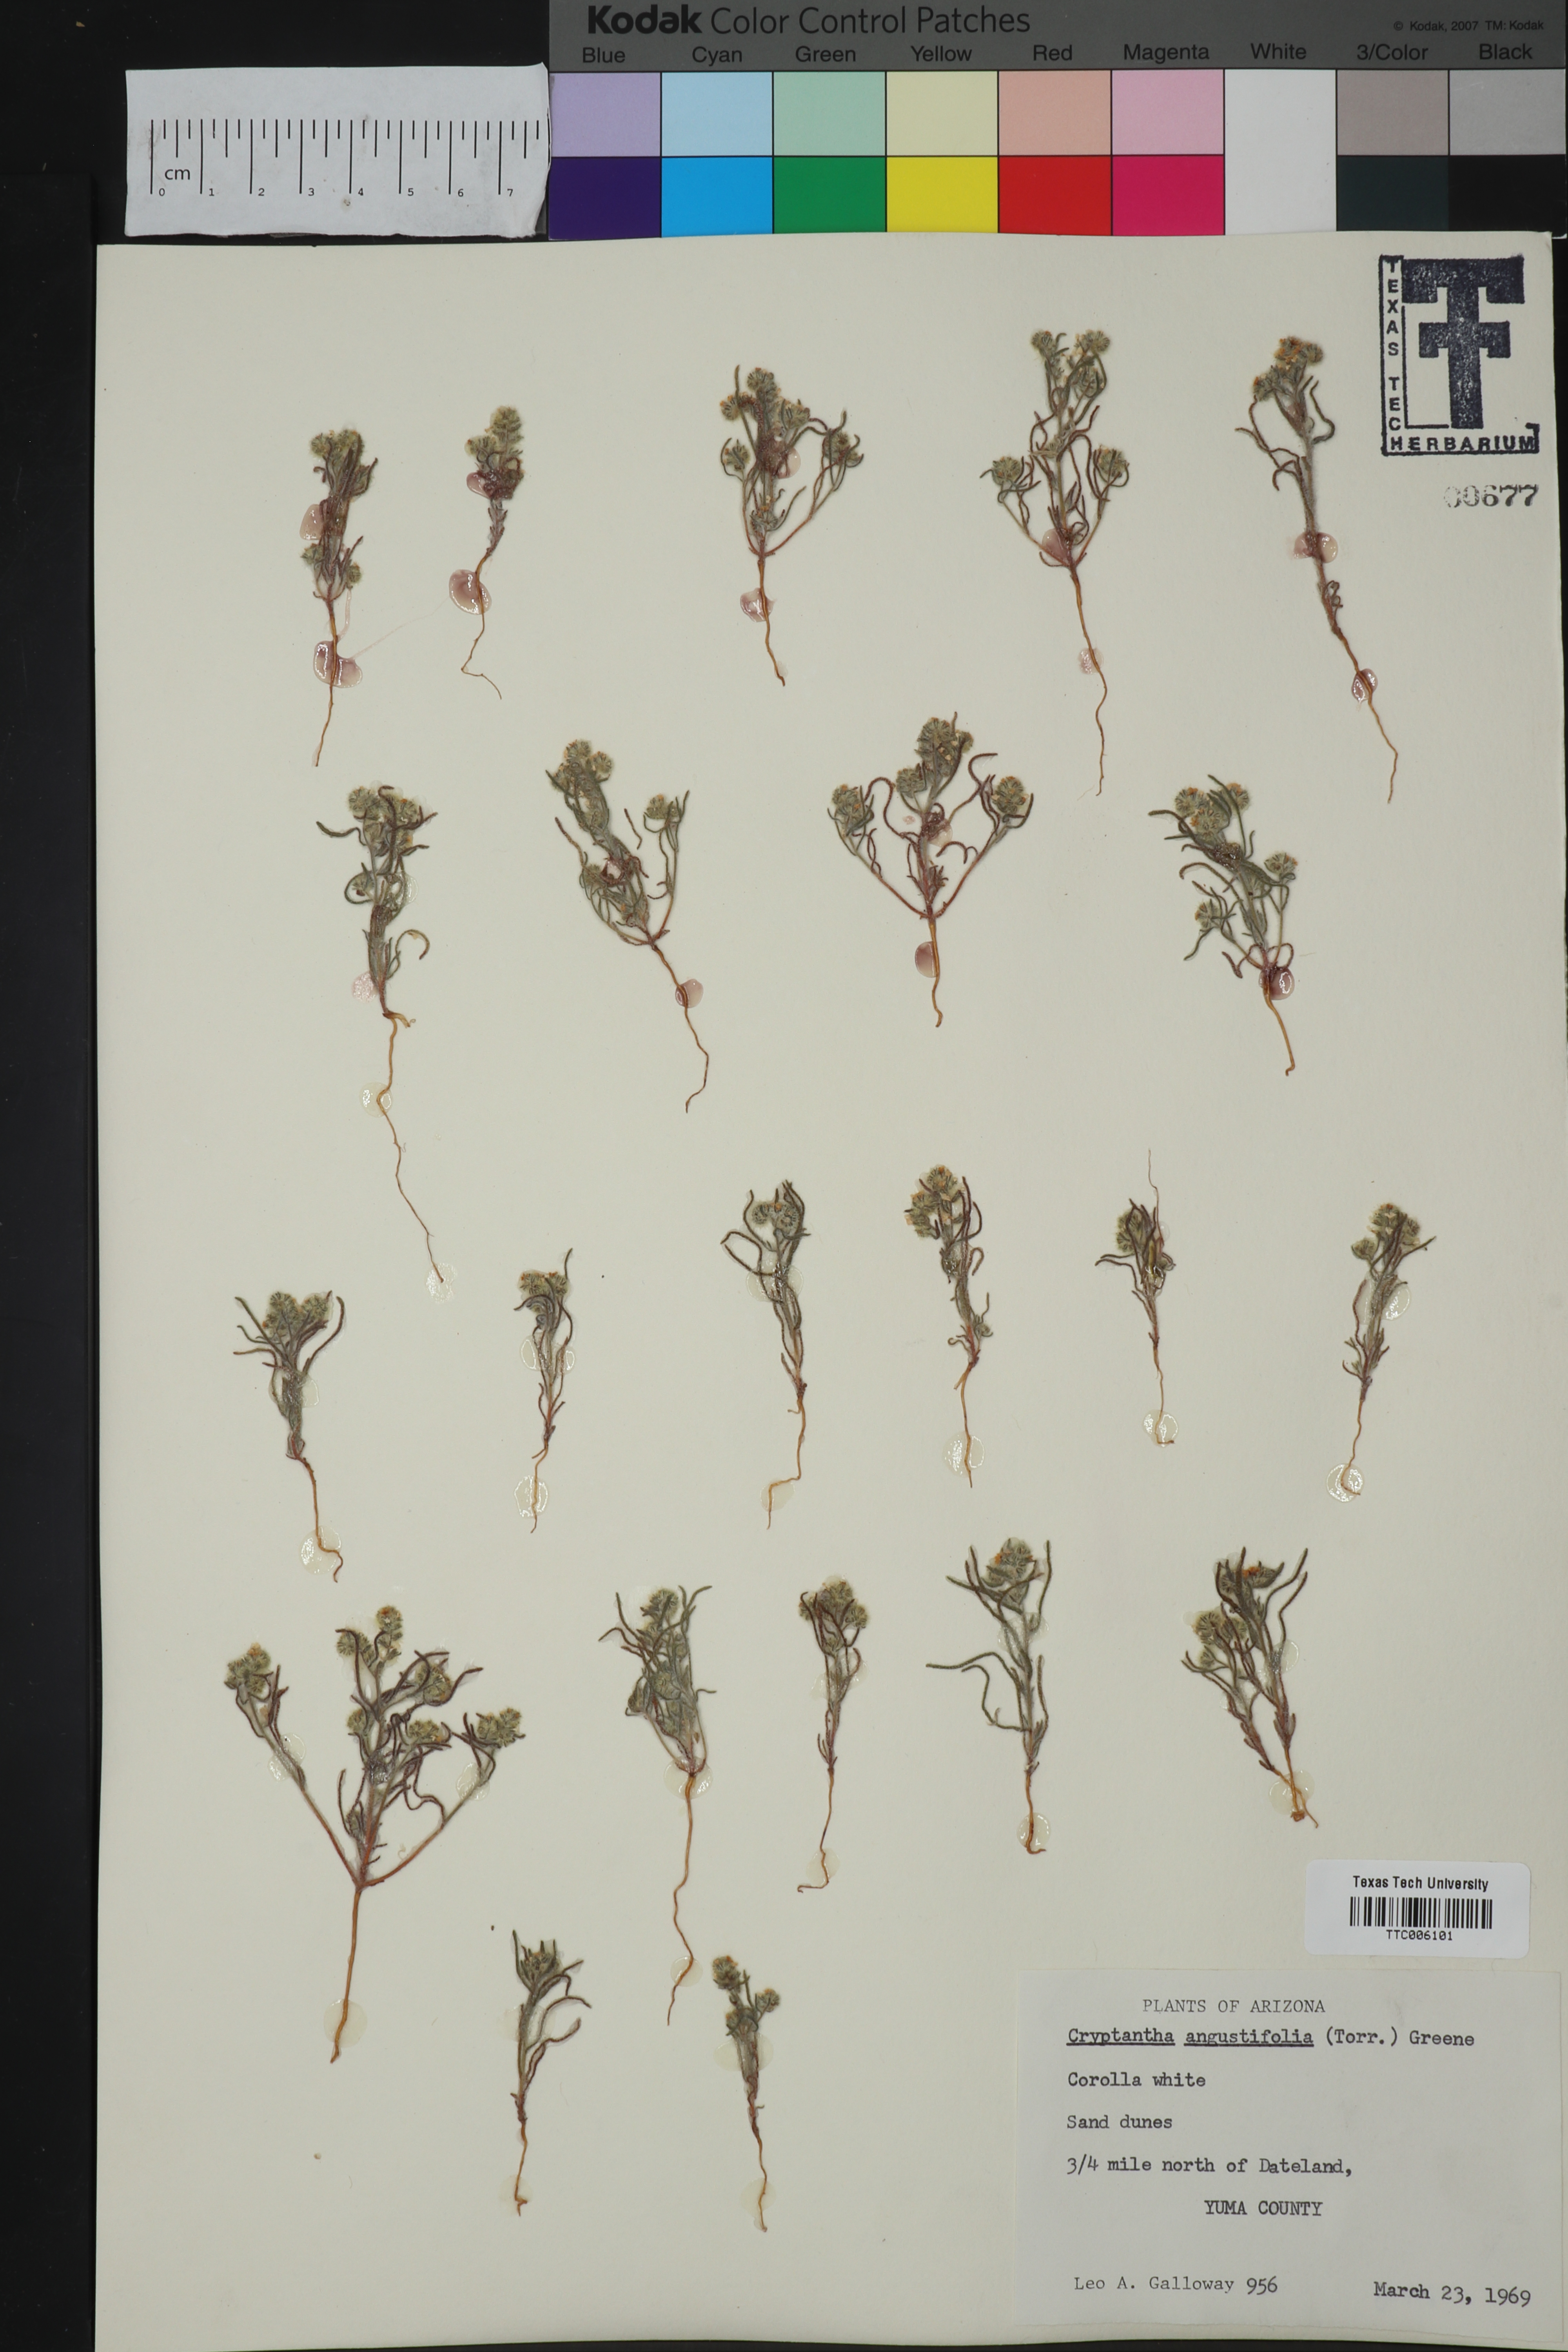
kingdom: Plantae
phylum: Tracheophyta
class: Magnoliopsida
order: Boraginales
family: Boraginaceae
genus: Johnstonella
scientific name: Johnstonella angustifolia
